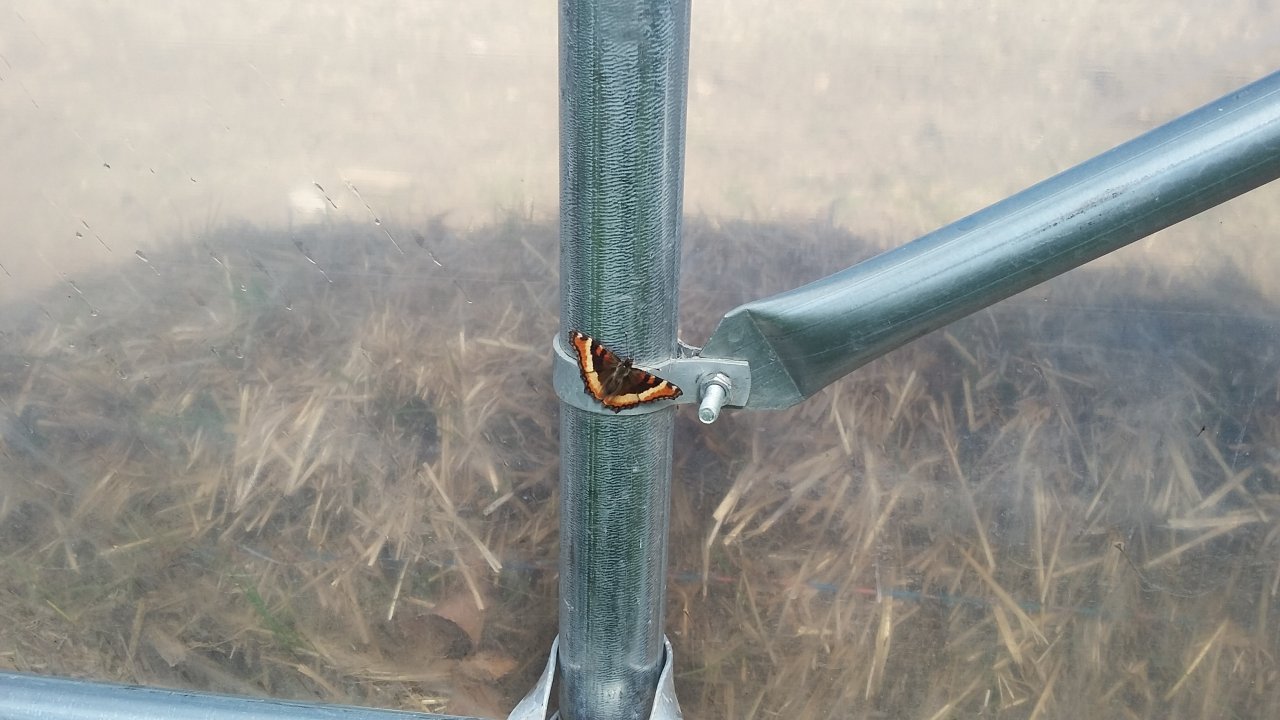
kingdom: Animalia
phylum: Arthropoda
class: Insecta
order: Lepidoptera
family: Nymphalidae
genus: Aglais
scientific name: Aglais milberti
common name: Milbert's Tortoiseshell
